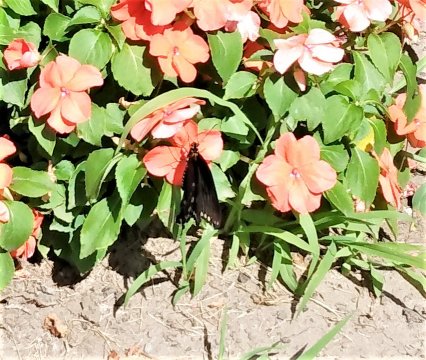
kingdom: Animalia
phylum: Arthropoda
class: Insecta
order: Lepidoptera
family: Papilionidae
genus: Pterourus
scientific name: Pterourus troilus
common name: Spicebush Swallowtail
